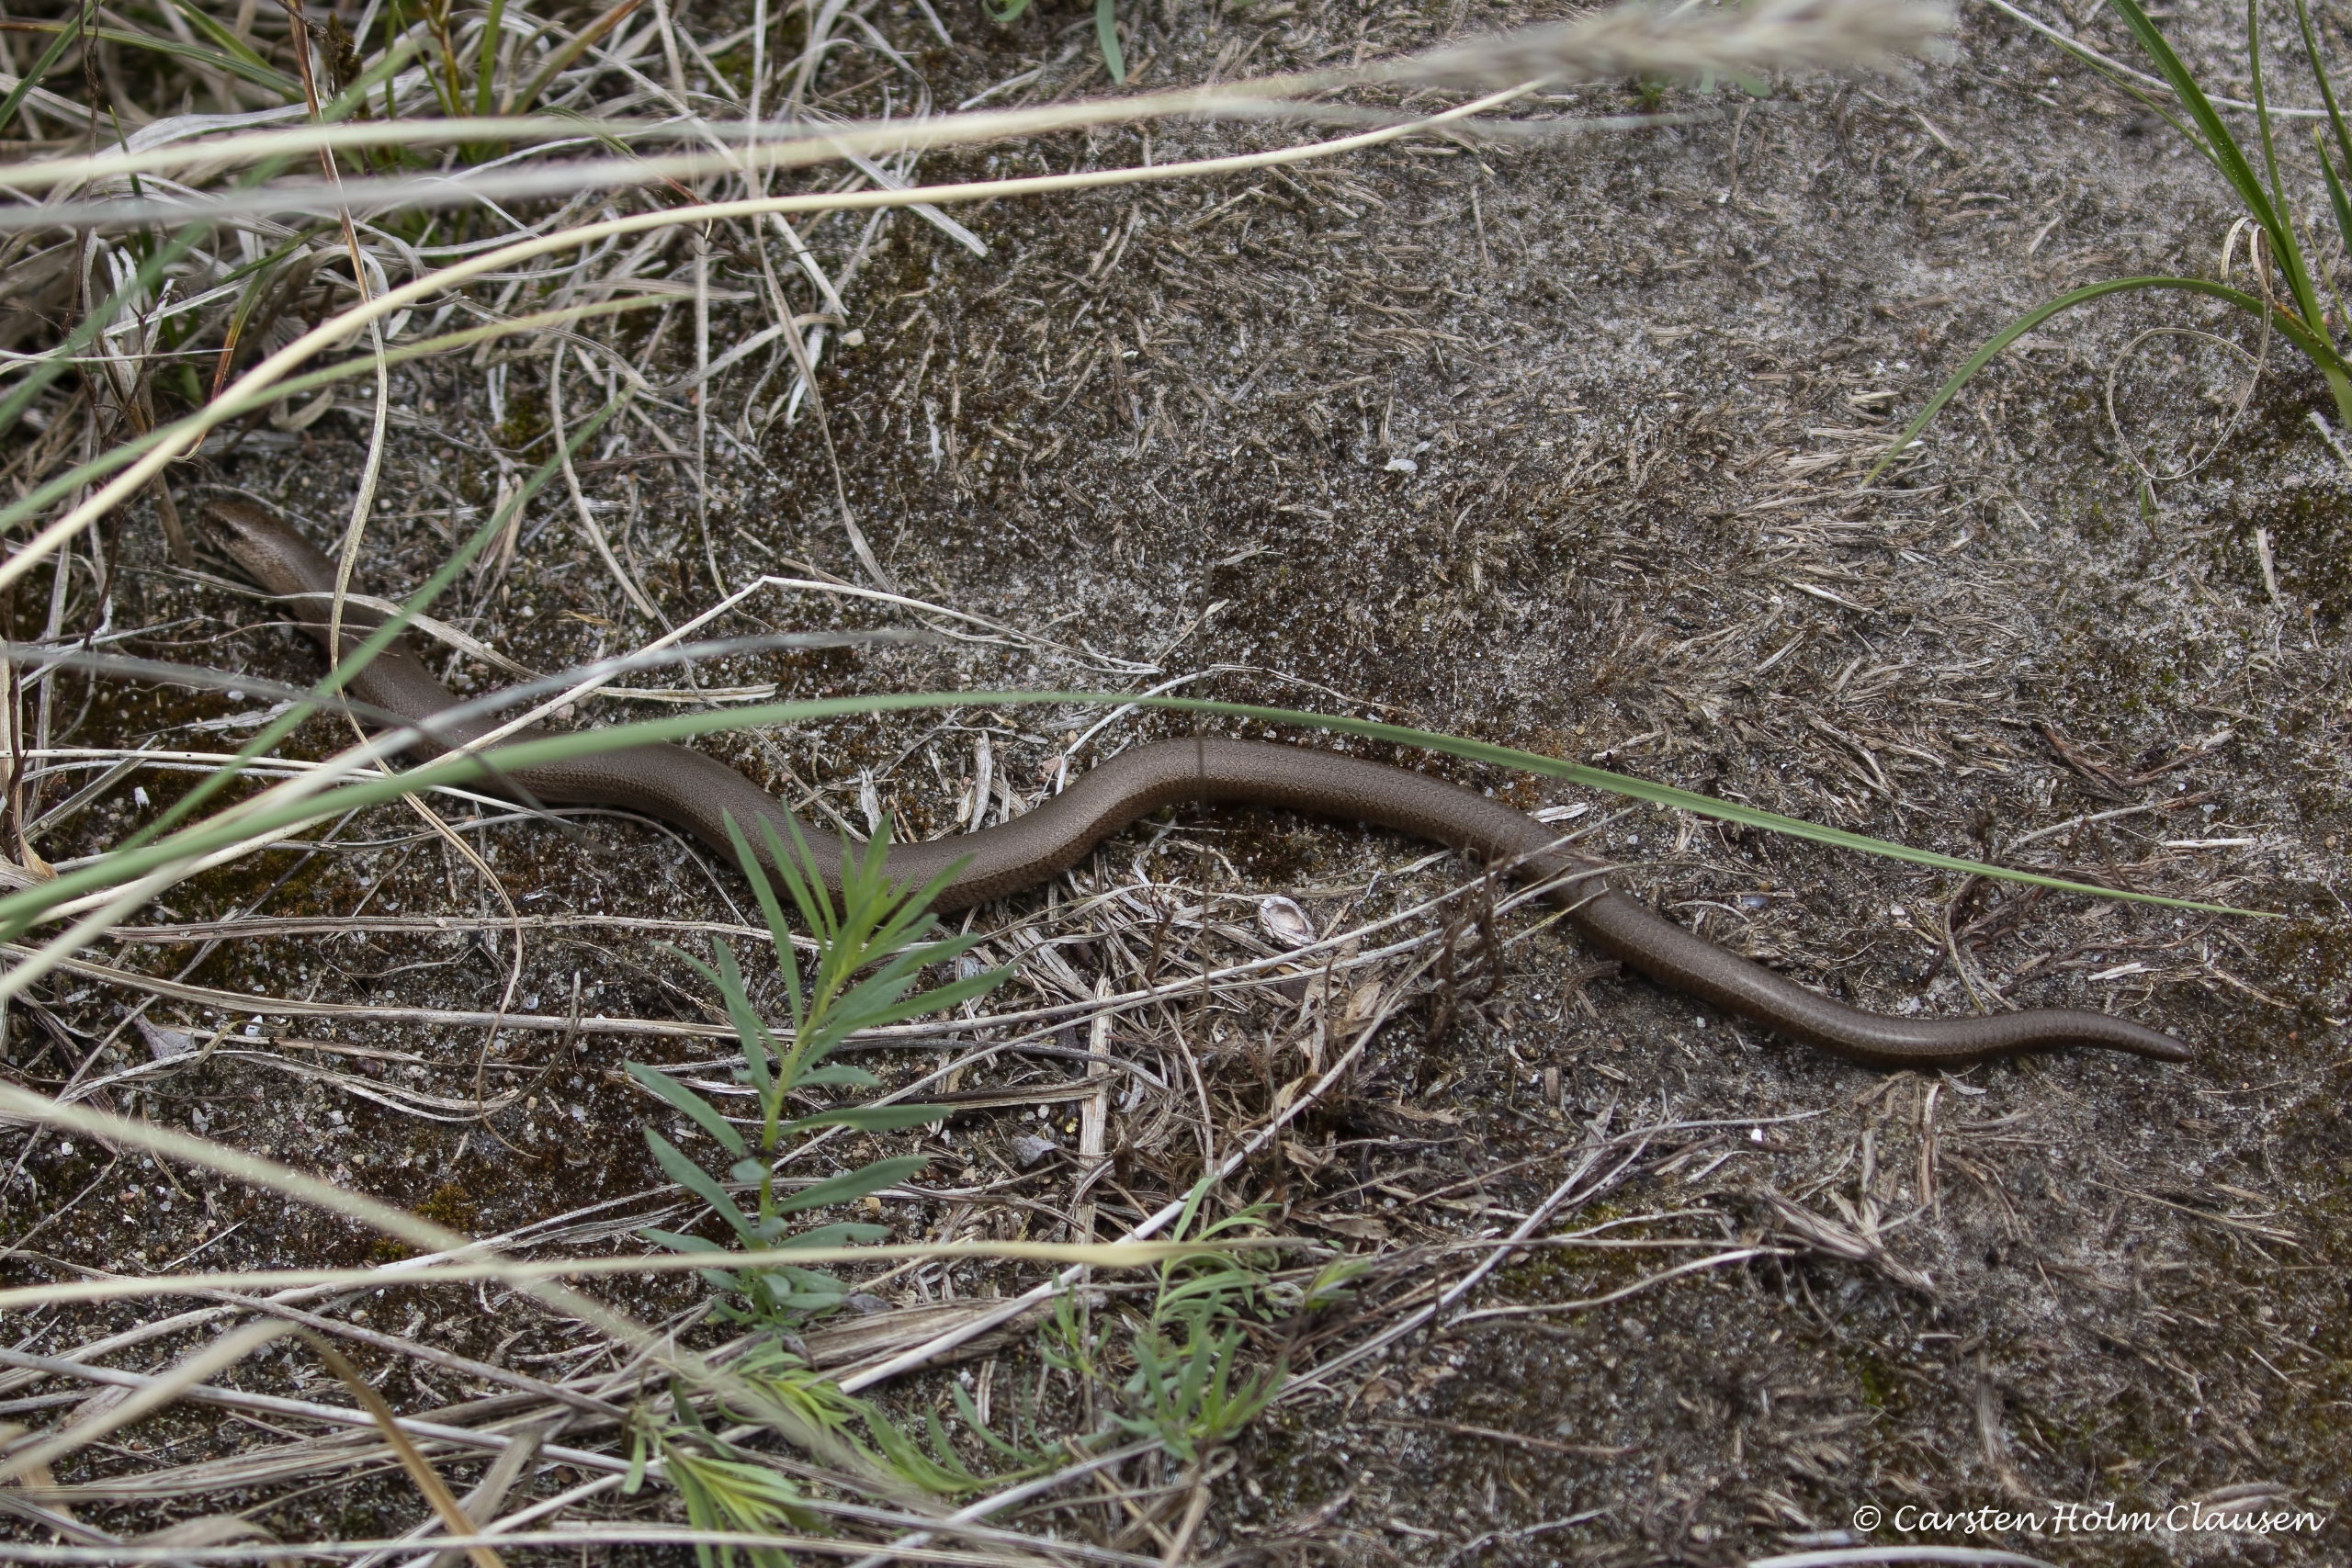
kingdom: Animalia
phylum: Chordata
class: Squamata
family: Anguidae
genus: Anguis
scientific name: Anguis fragilis
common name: Stålorm
